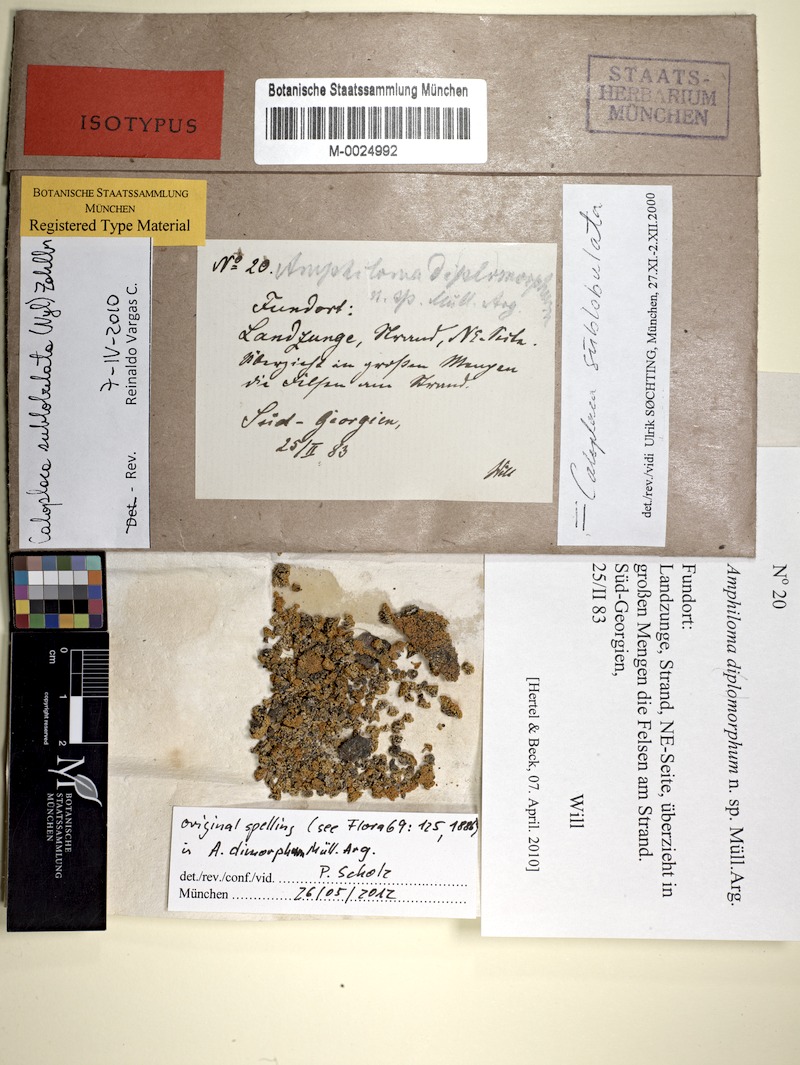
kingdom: Fungi
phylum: Ascomycota
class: Lecanoromycetes
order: Teloschistales
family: Teloschistaceae
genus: Gondwania
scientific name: Gondwania sublobulata
